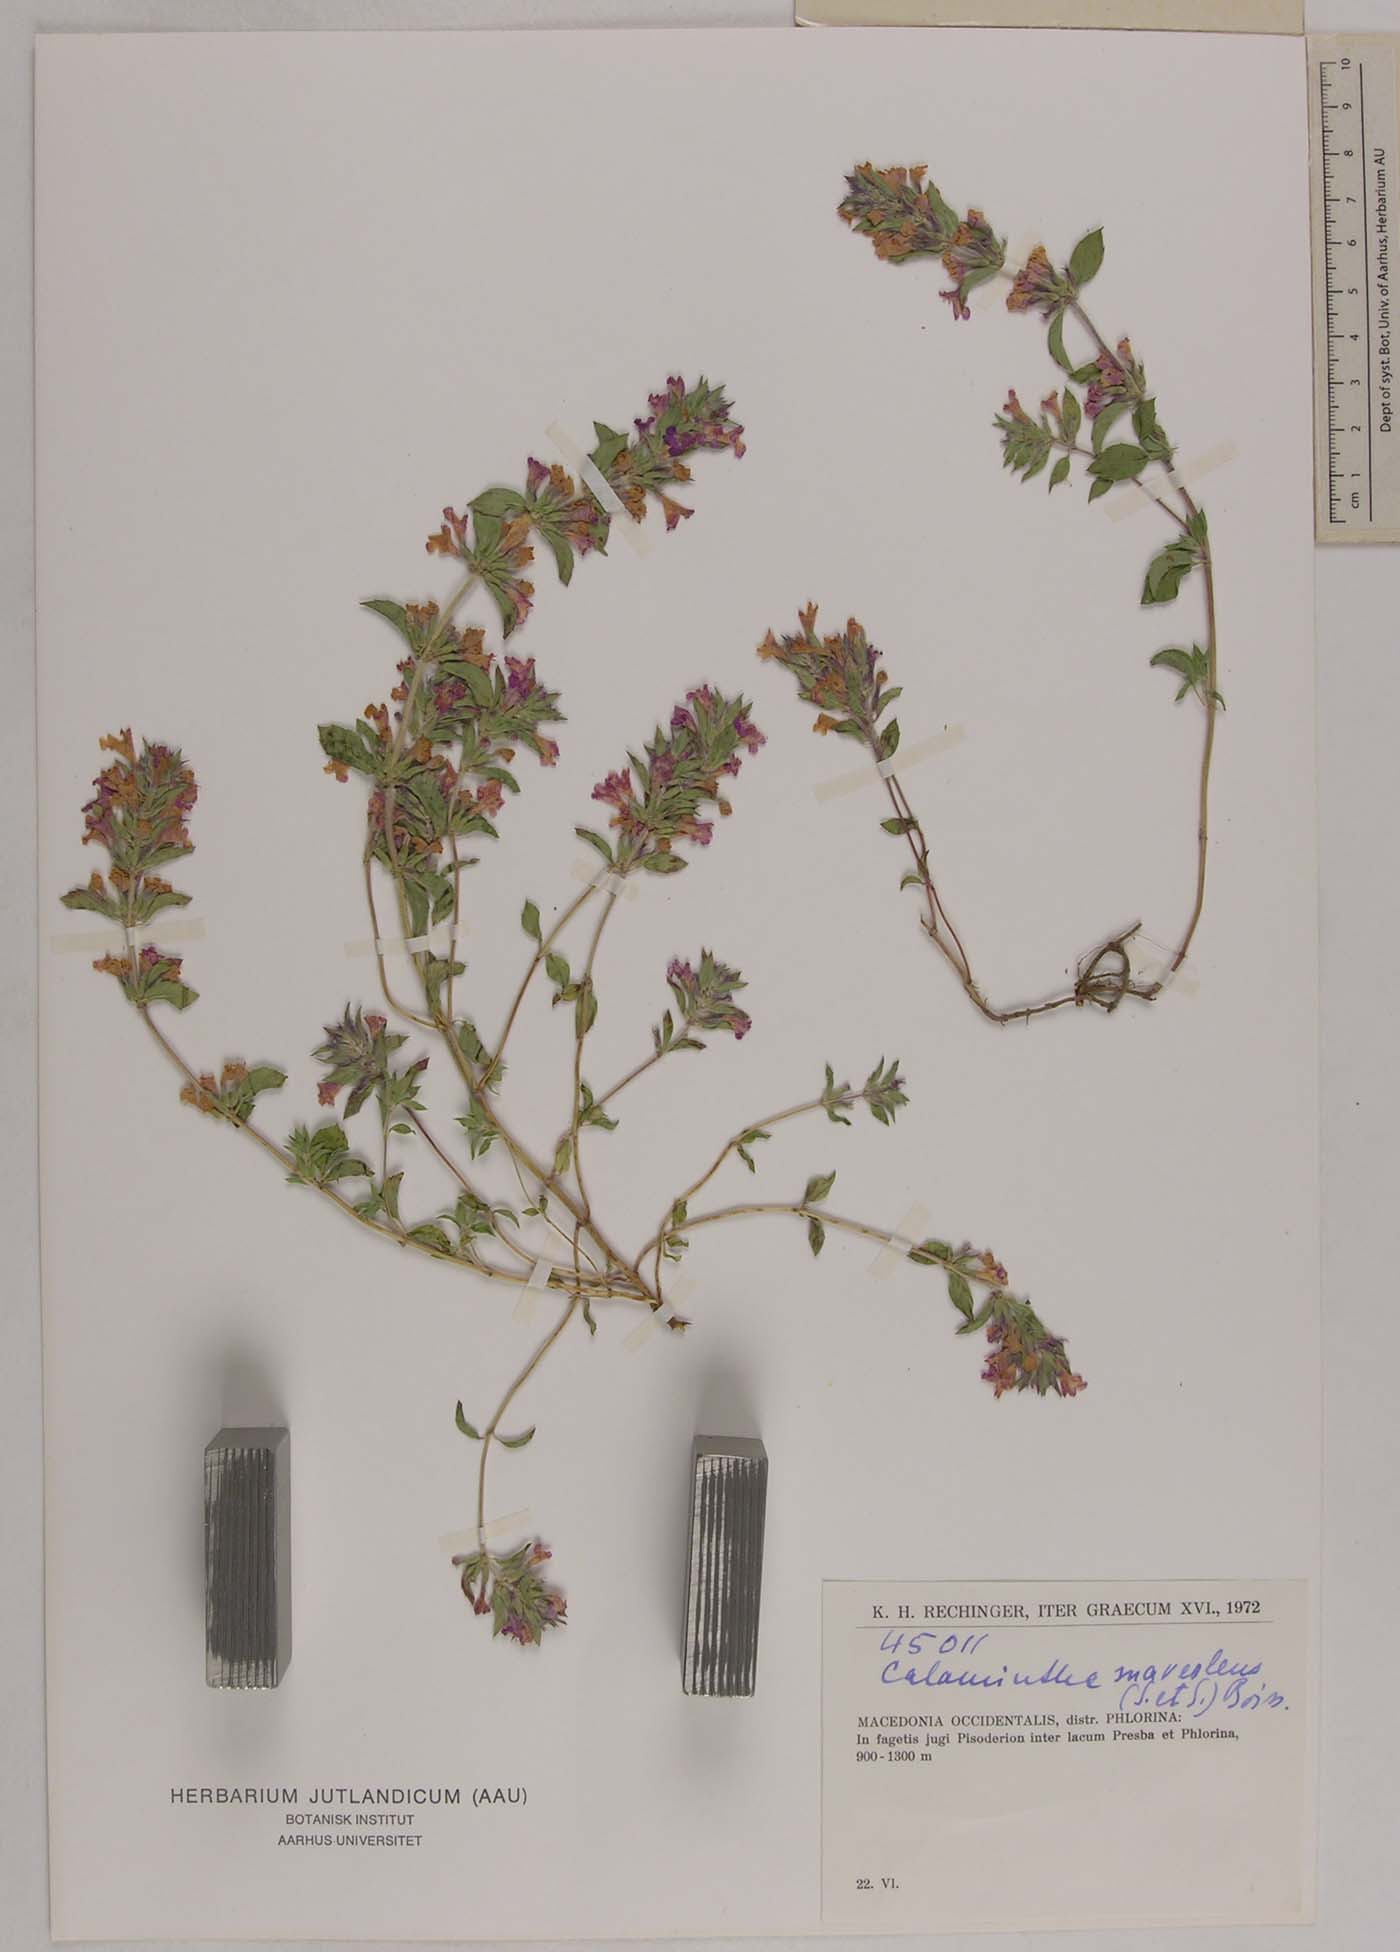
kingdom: Plantae
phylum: Tracheophyta
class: Magnoliopsida
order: Lamiales
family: Lamiaceae
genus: Clinopodium
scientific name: Clinopodium suaveolens
